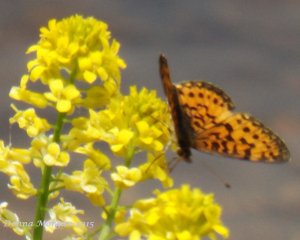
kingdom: Animalia
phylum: Arthropoda
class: Insecta
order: Lepidoptera
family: Nymphalidae
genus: Boloria
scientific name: Boloria selene
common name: Silver-bordered Fritillary
